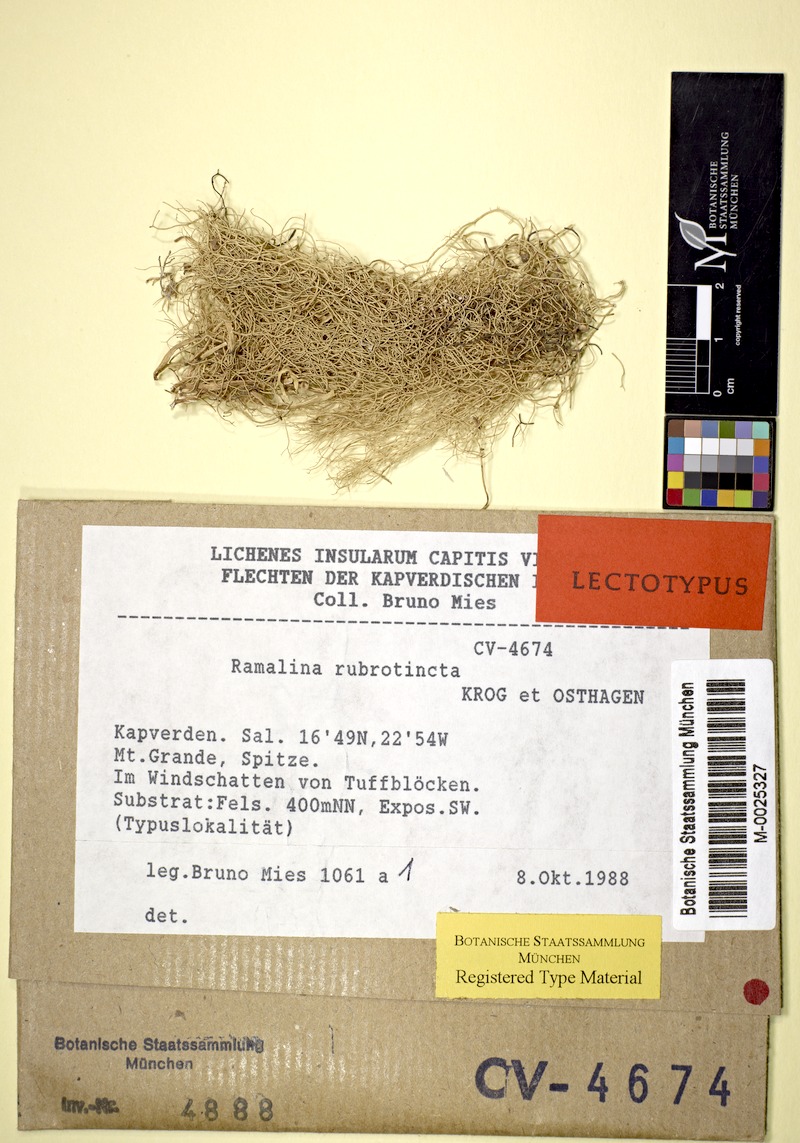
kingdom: Fungi
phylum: Ascomycota
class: Lecanoromycetes
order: Lecanorales
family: Ramalinaceae
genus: Ramalina
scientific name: Ramalina rubrotincta
